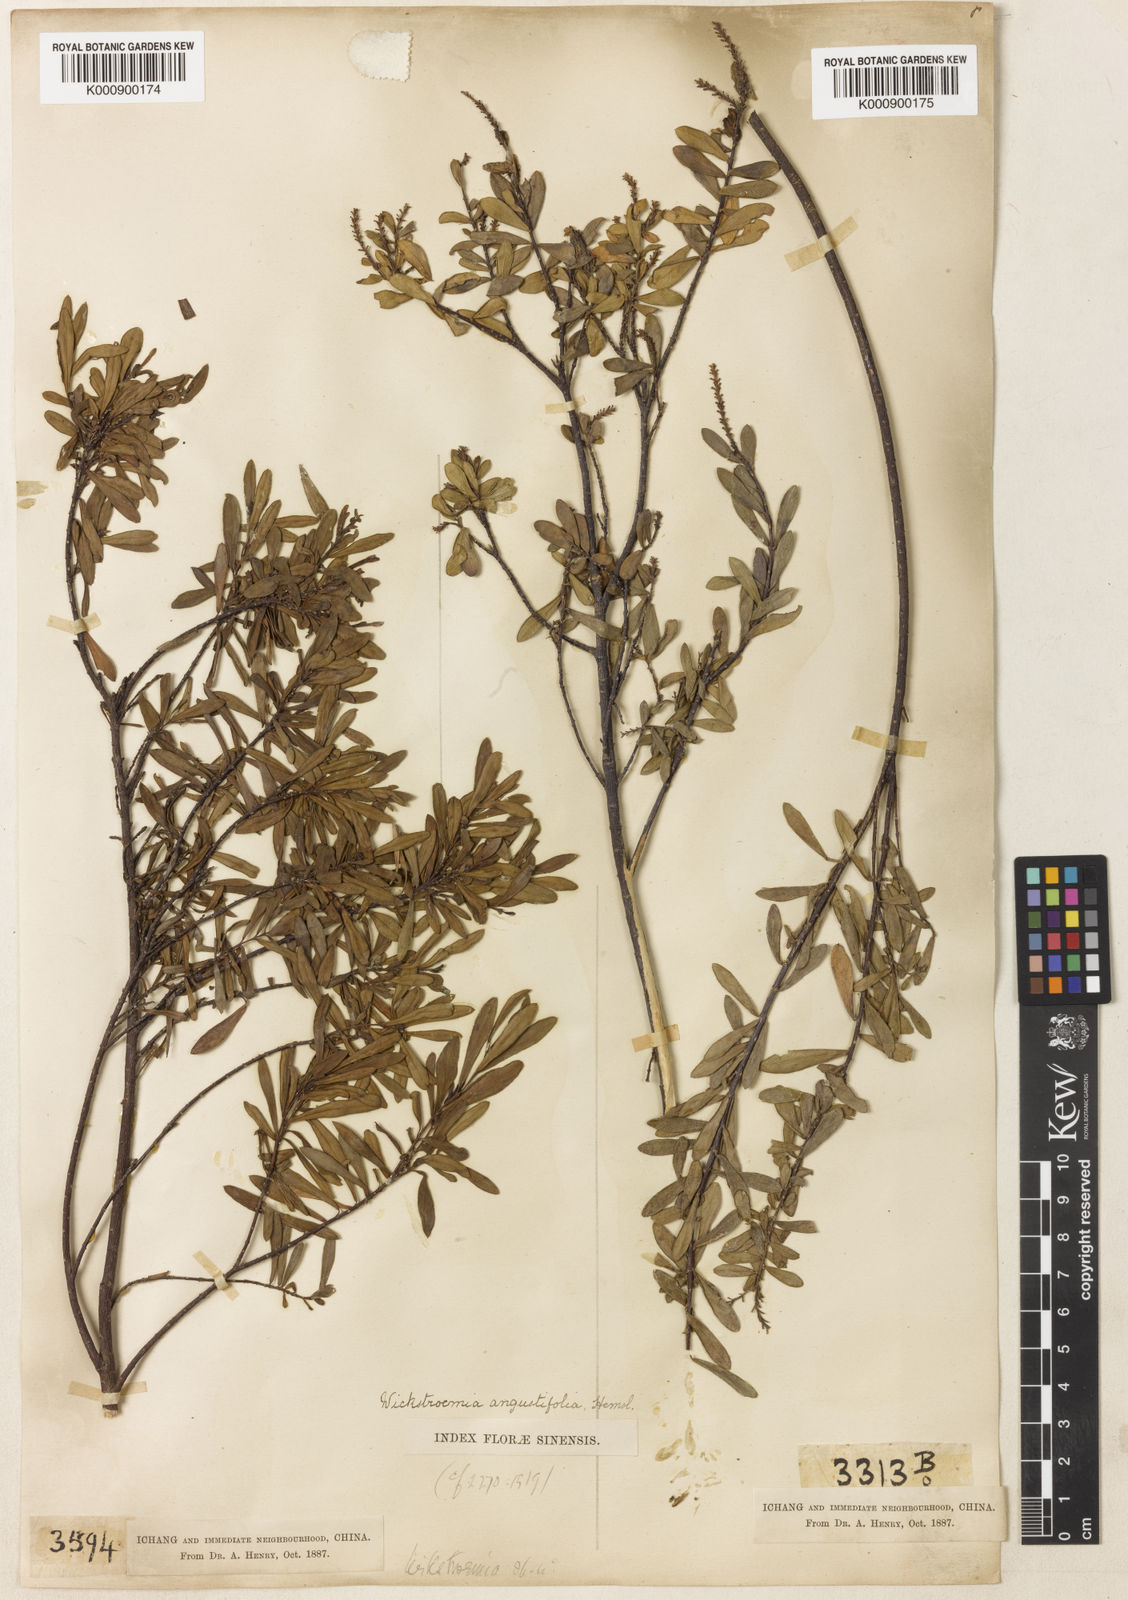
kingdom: Plantae
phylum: Tracheophyta
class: Magnoliopsida
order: Malvales
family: Thymelaeaceae
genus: Wikstroemia
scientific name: Wikstroemia angustifolia
